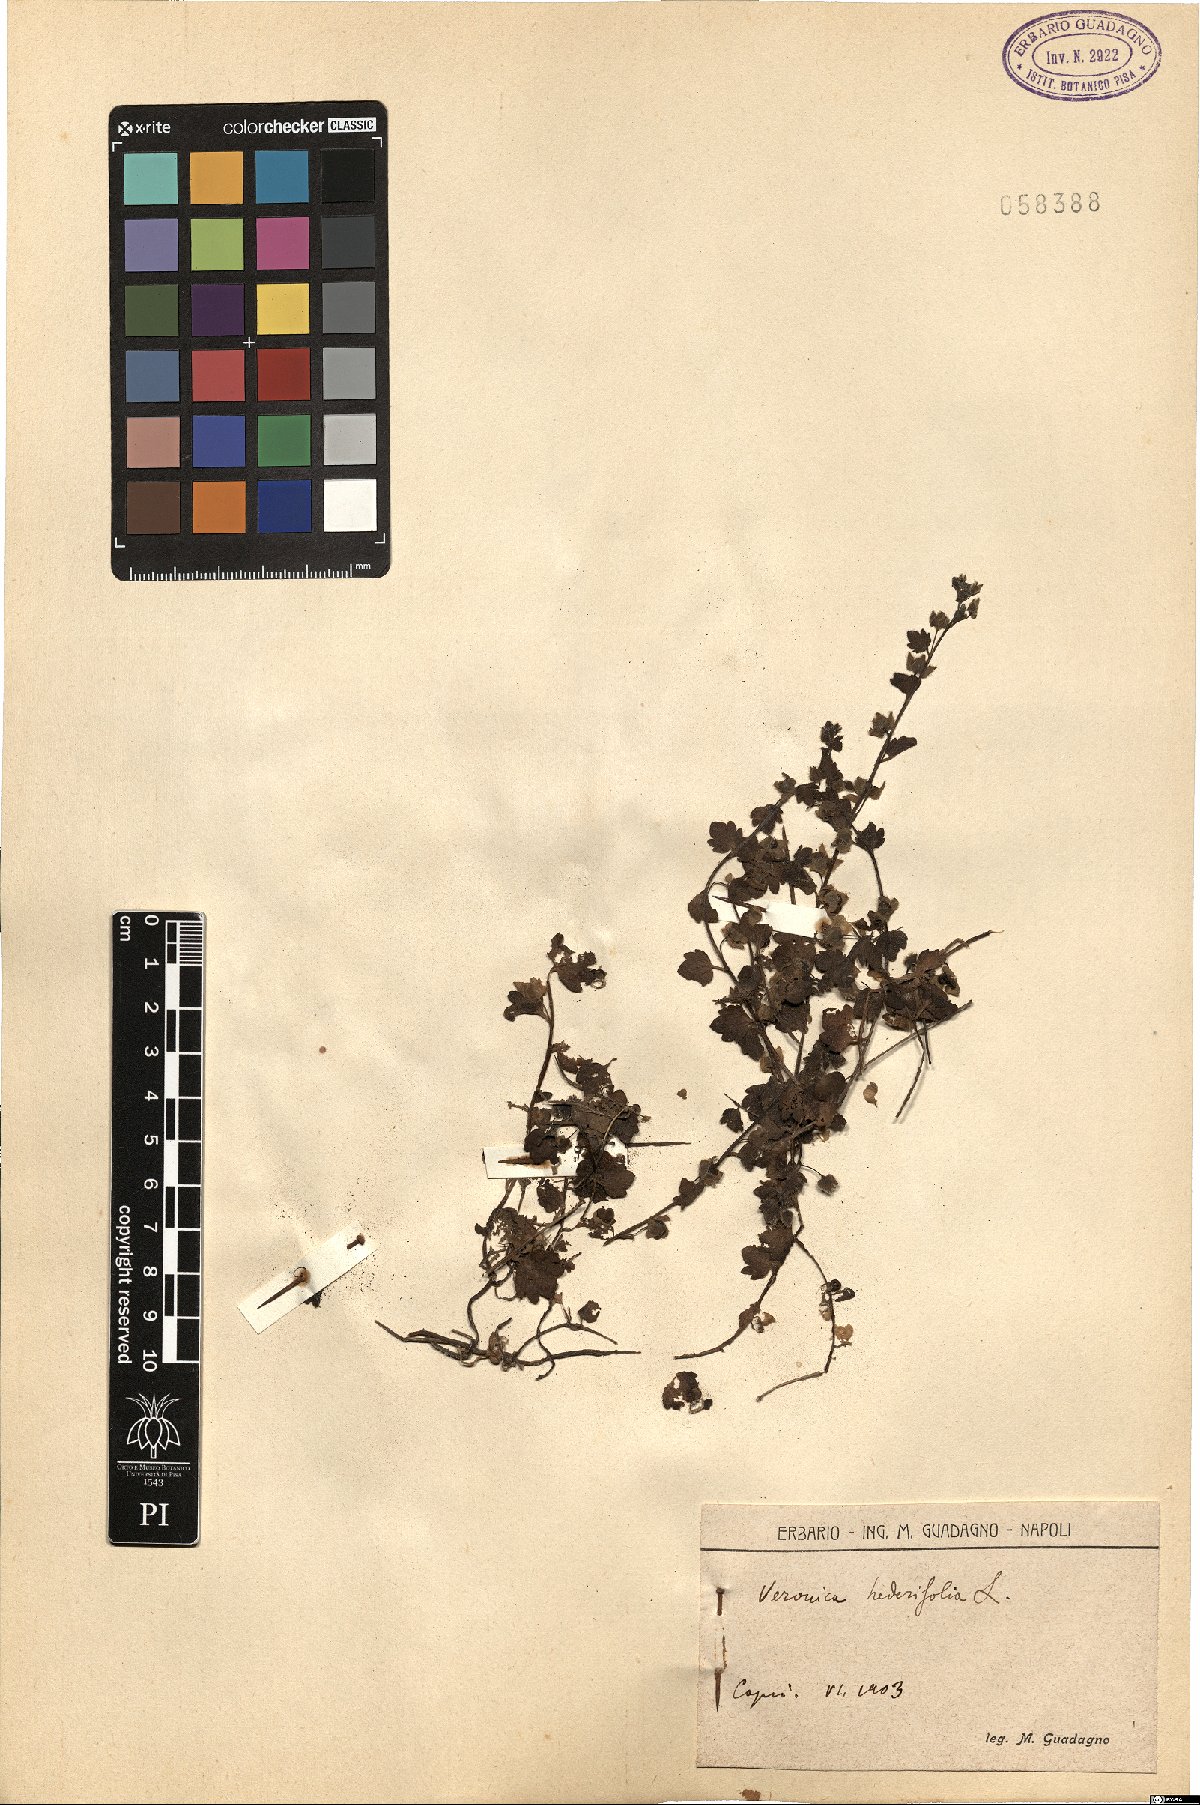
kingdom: Plantae
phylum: Tracheophyta
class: Magnoliopsida
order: Lamiales
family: Plantaginaceae
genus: Veronica
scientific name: Veronica hederifolia
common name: Ivy-leaved speedwell
